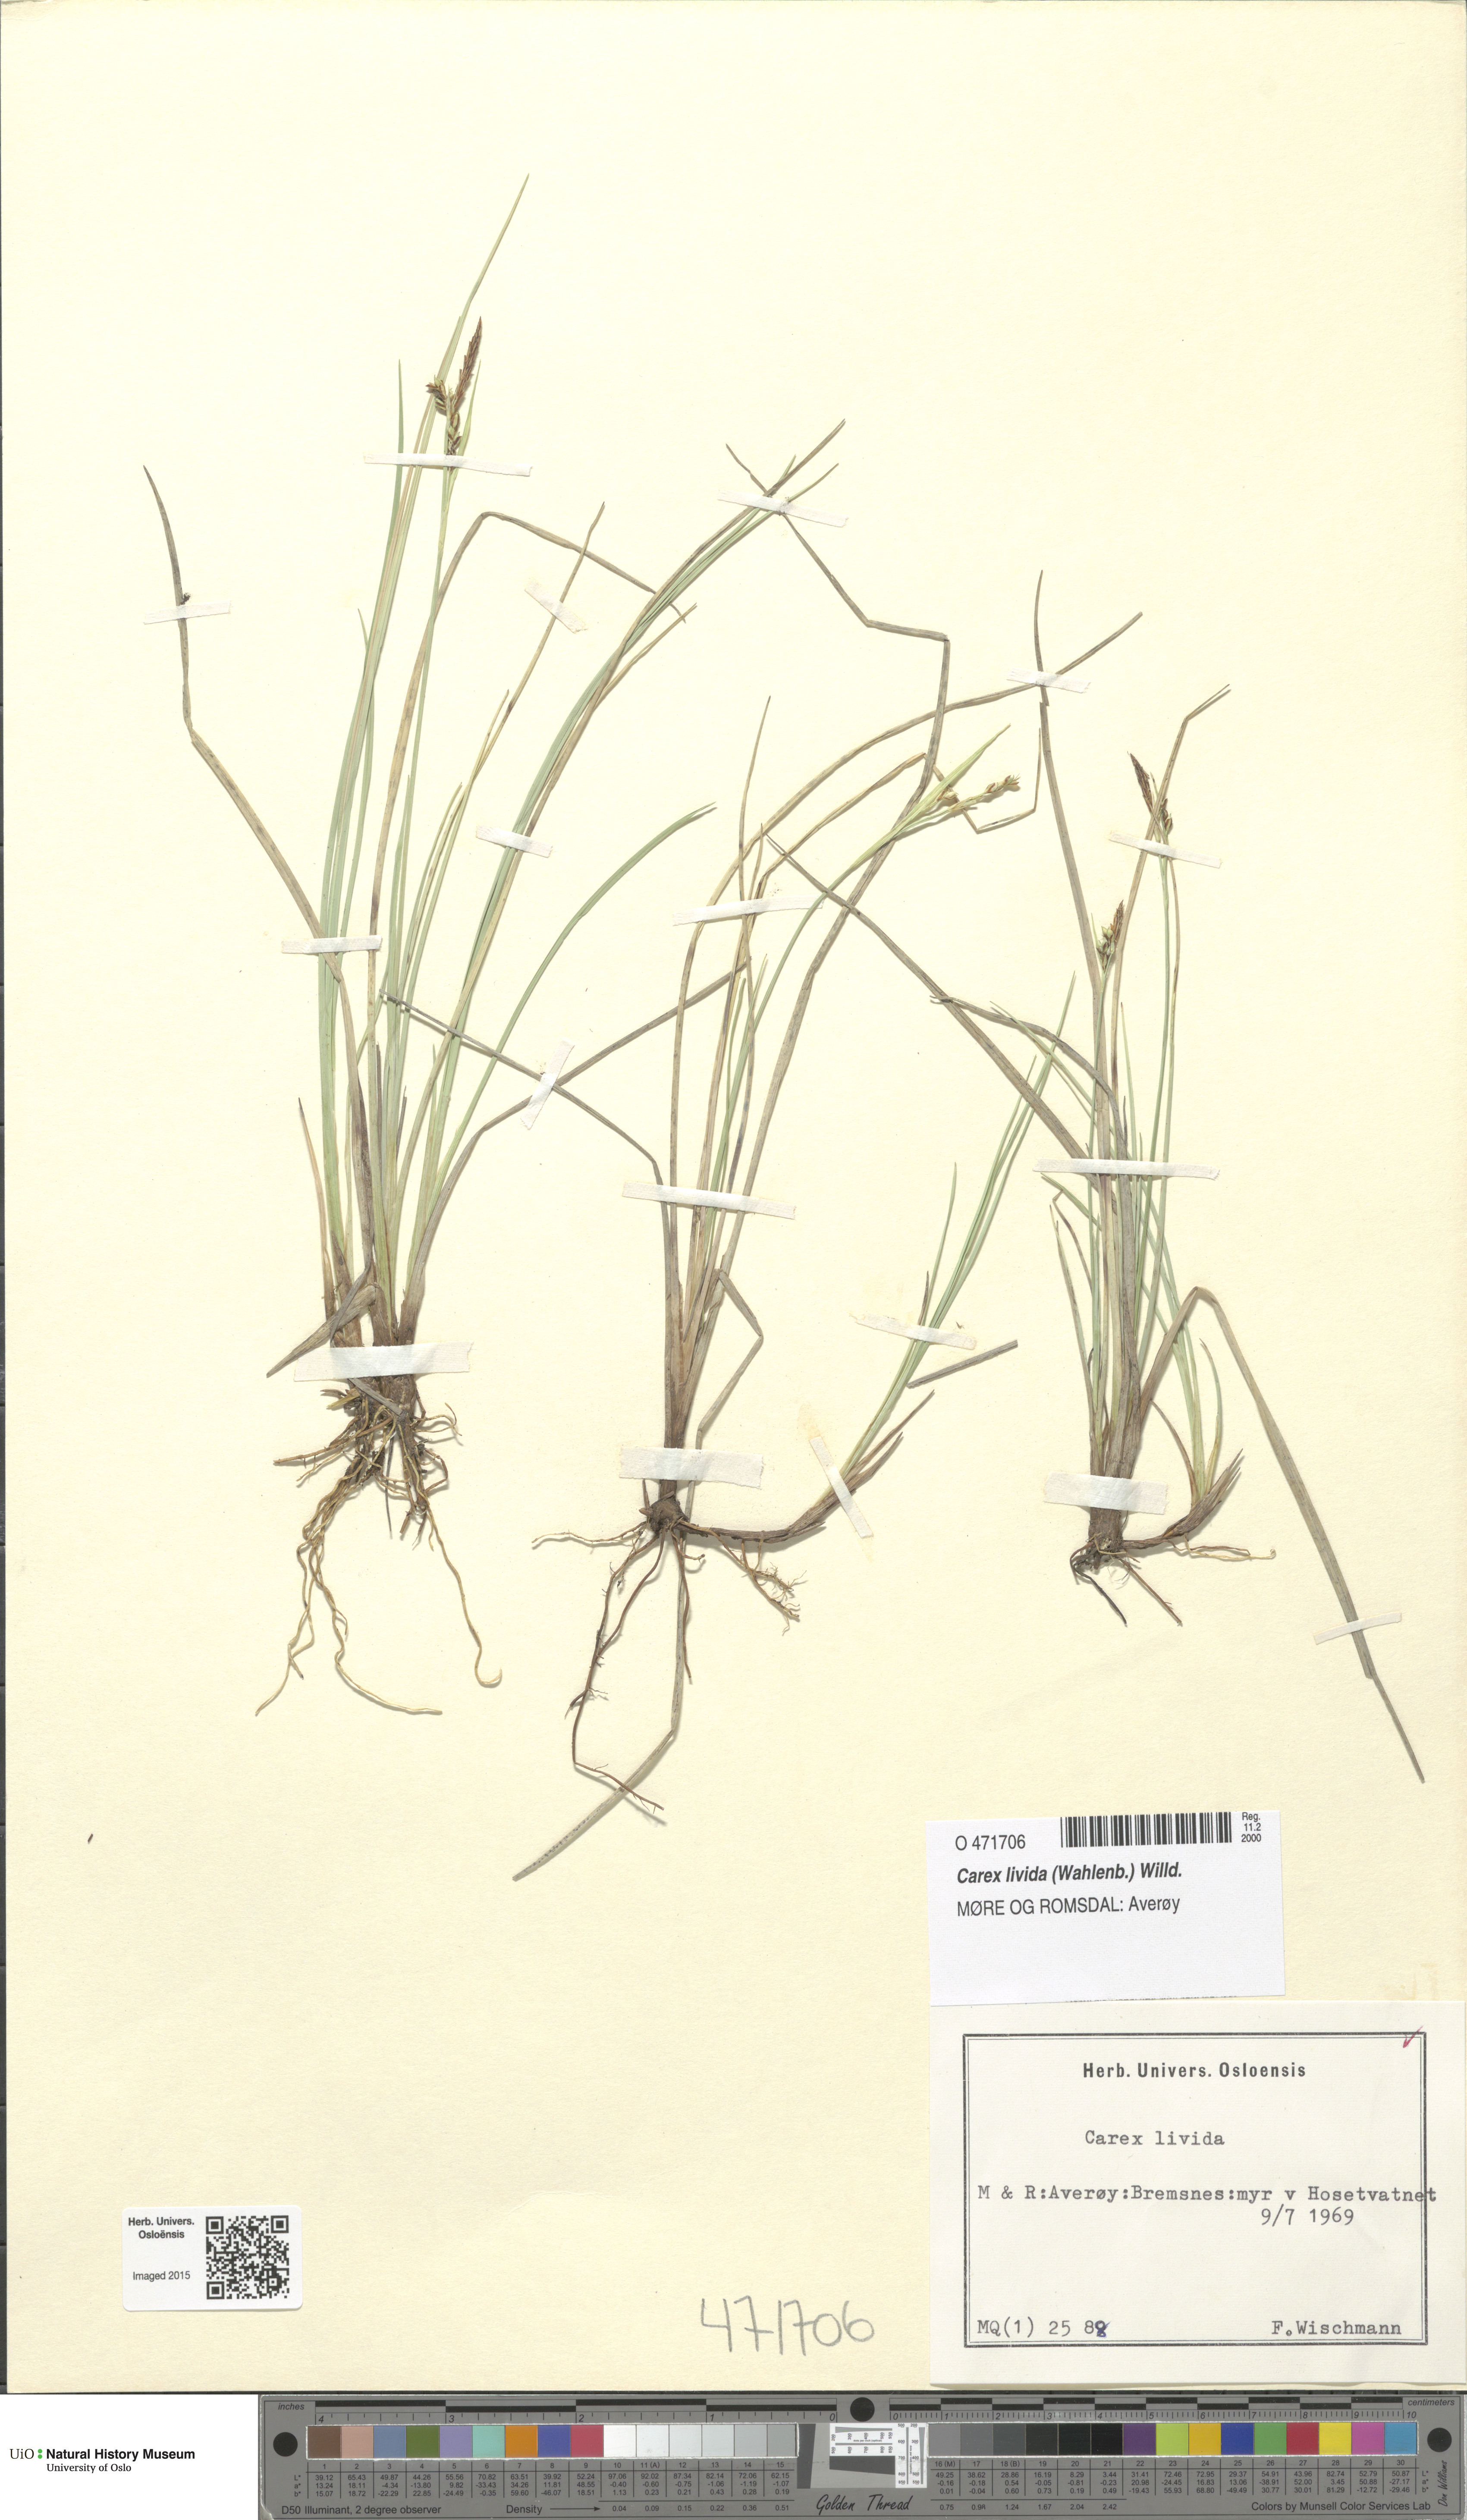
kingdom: Plantae
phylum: Tracheophyta
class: Liliopsida
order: Poales
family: Cyperaceae
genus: Carex
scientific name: Carex livida
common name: Livid sedge
